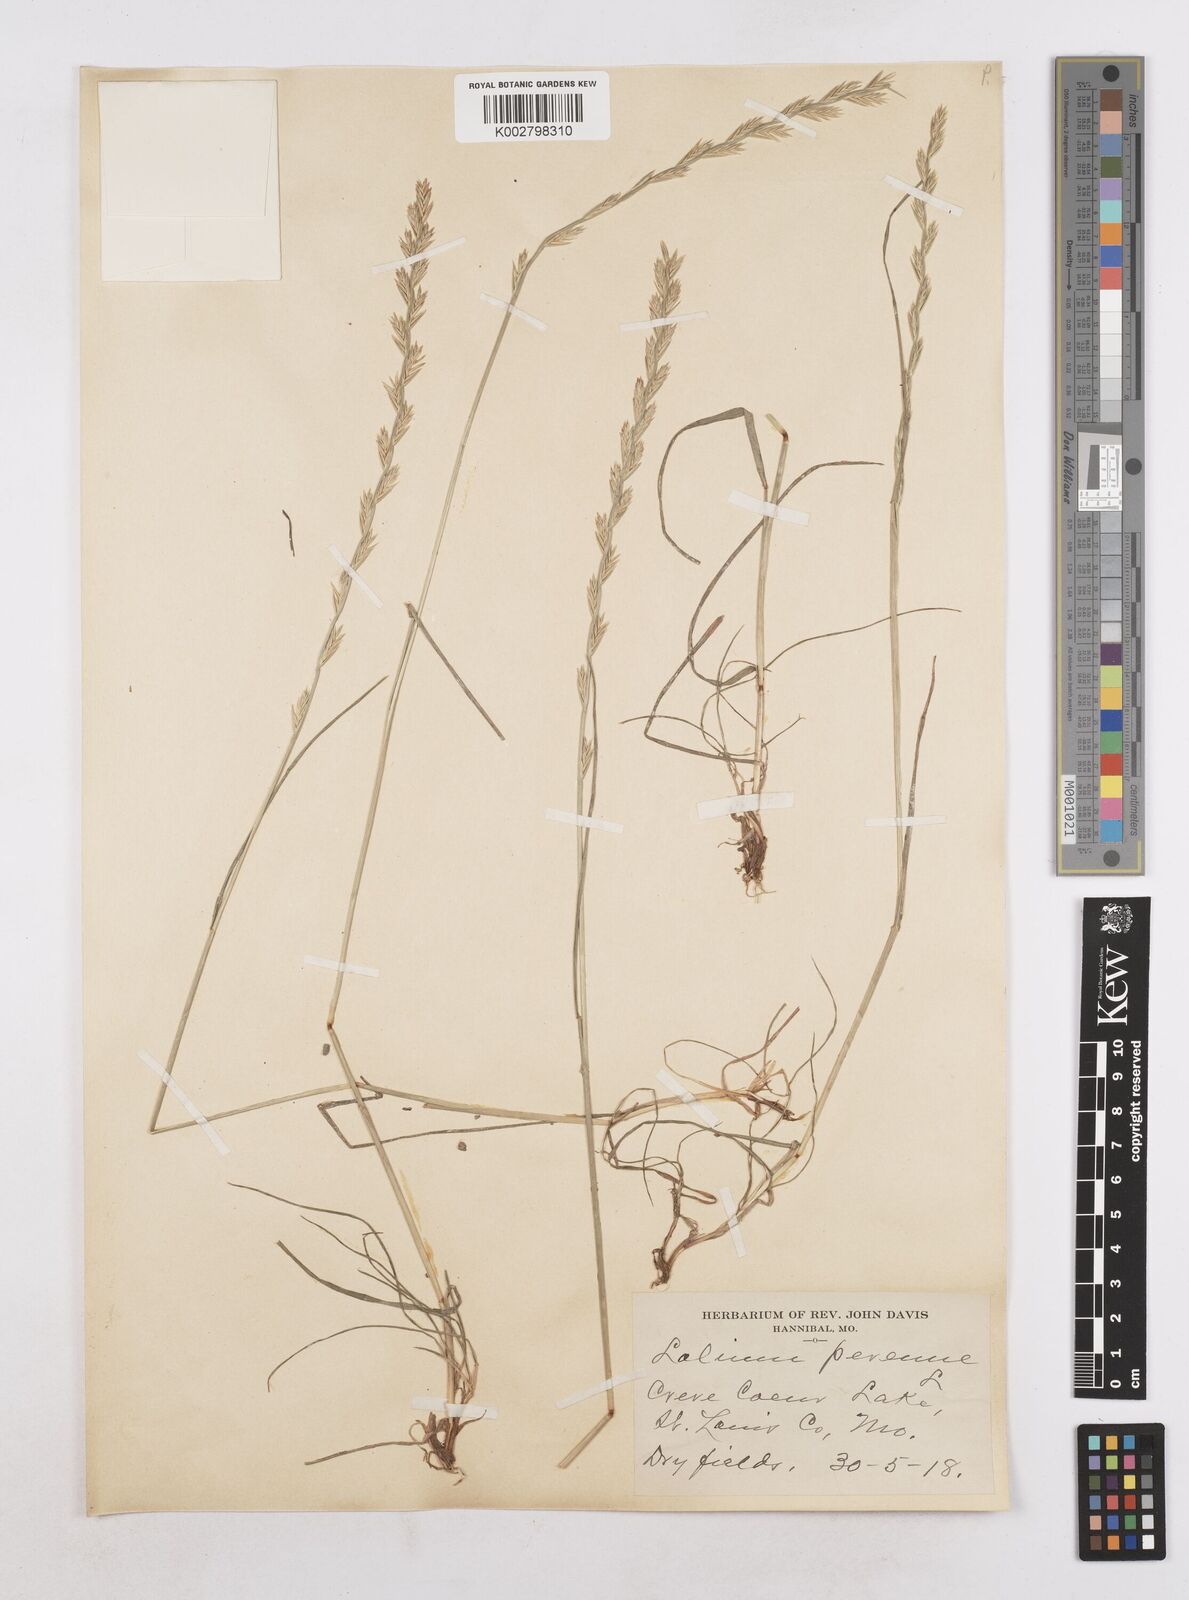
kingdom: Plantae
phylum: Tracheophyta
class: Liliopsida
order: Poales
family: Poaceae
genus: Lolium
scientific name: Lolium perenne
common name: Perennial ryegrass
